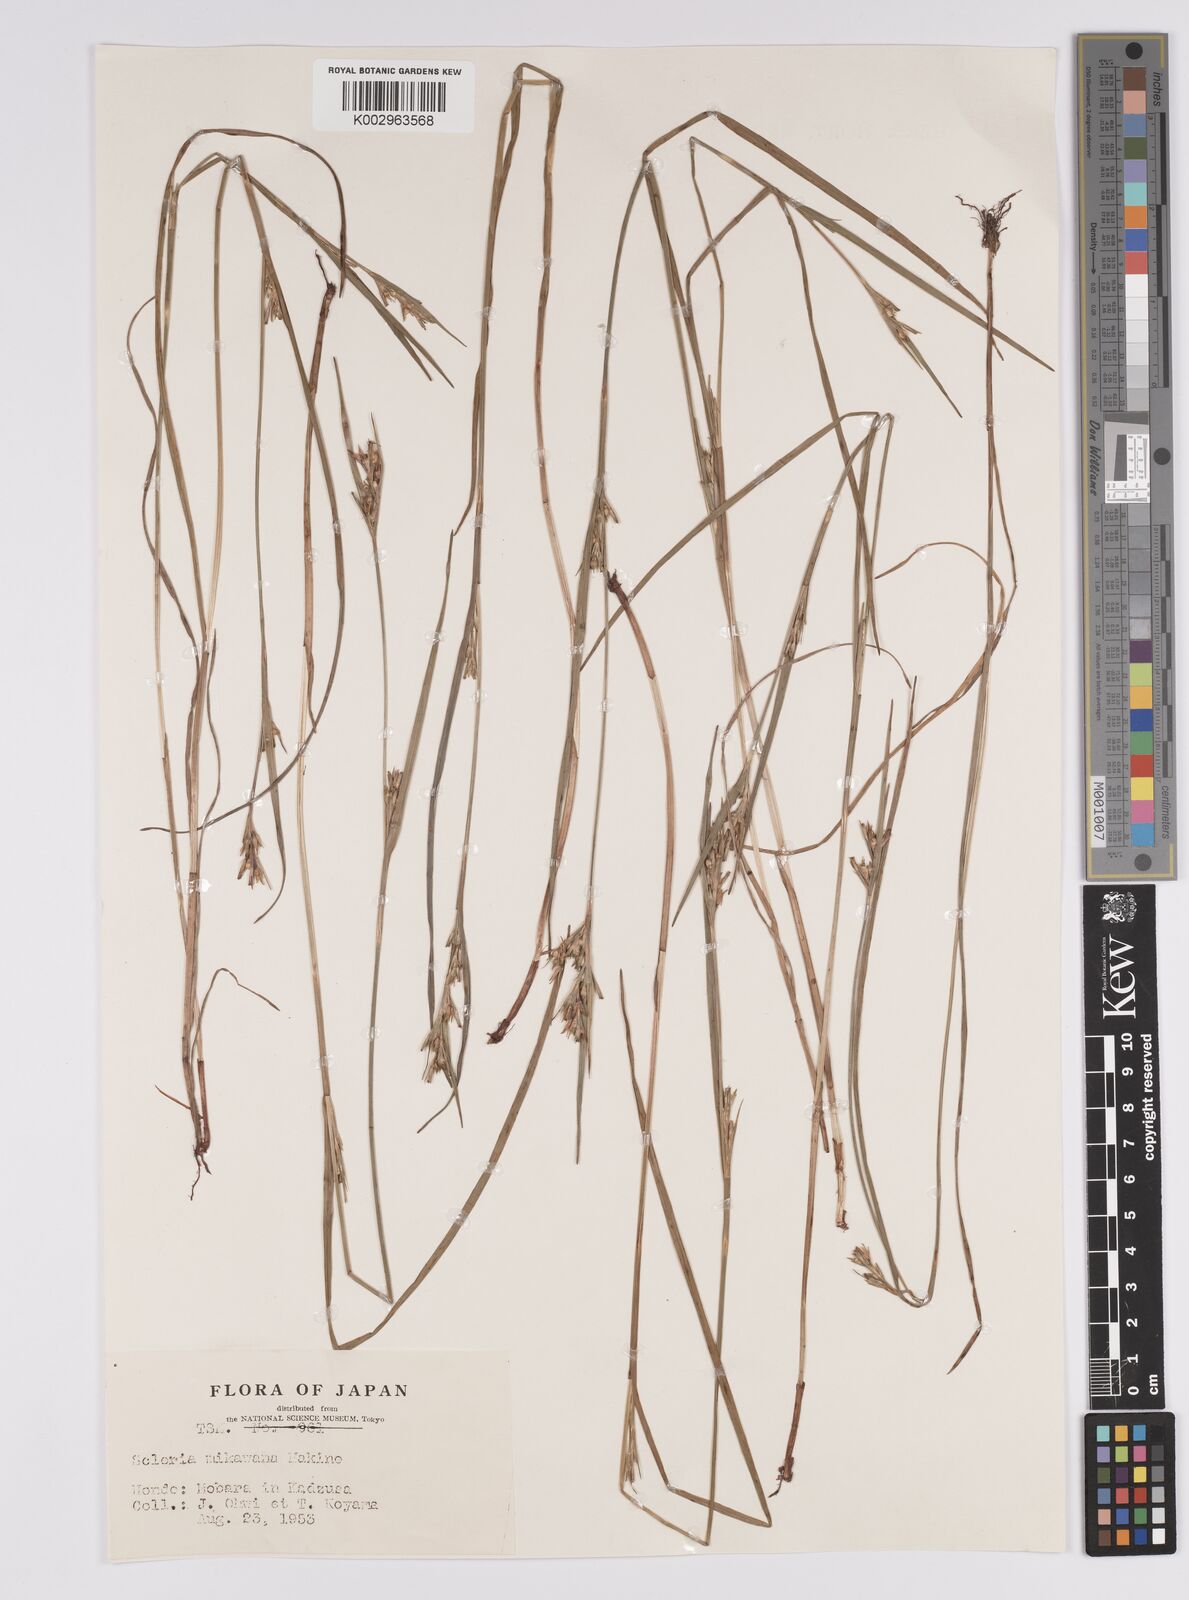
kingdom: Plantae
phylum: Tracheophyta
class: Liliopsida
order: Poales
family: Cyperaceae
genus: Scleria
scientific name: Scleria mikawana
